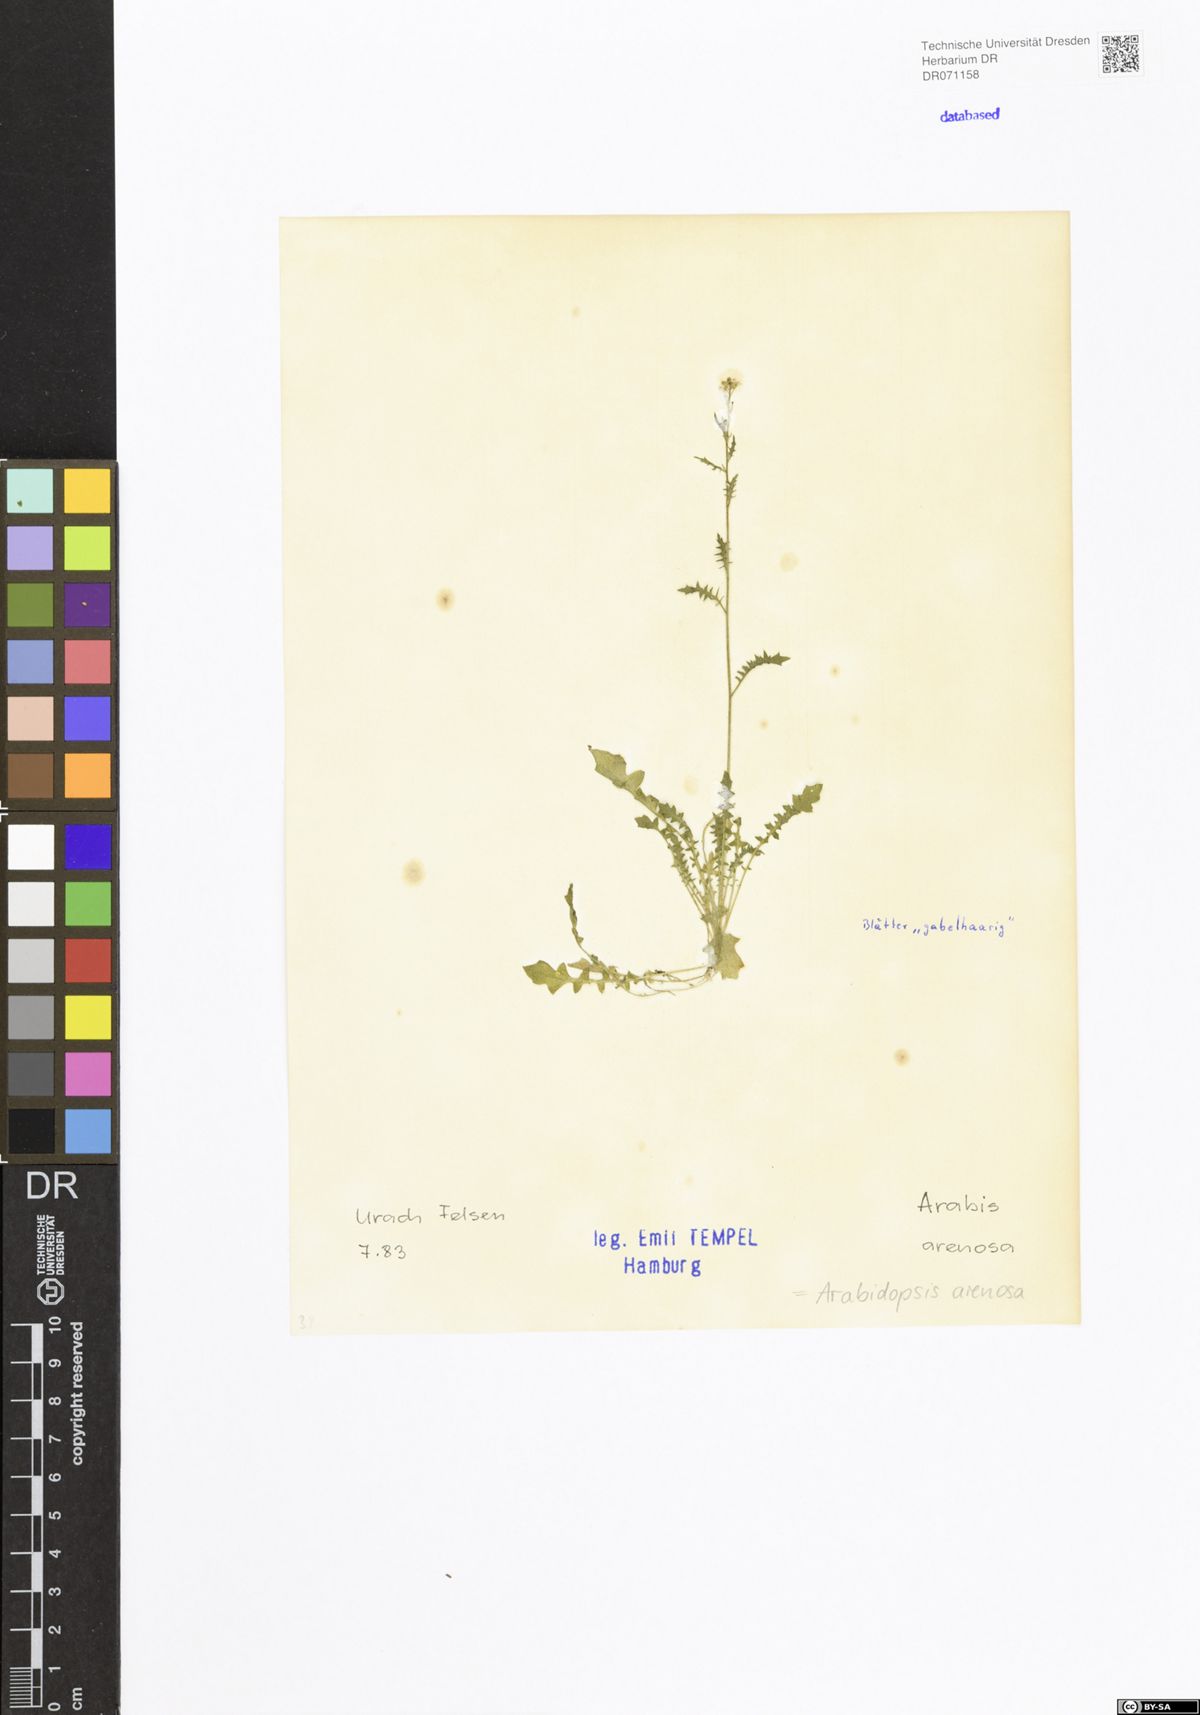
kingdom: Plantae
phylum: Tracheophyta
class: Magnoliopsida
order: Brassicales
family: Brassicaceae
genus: Arabidopsis
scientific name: Arabidopsis arenosa
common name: Sand rock-cress
